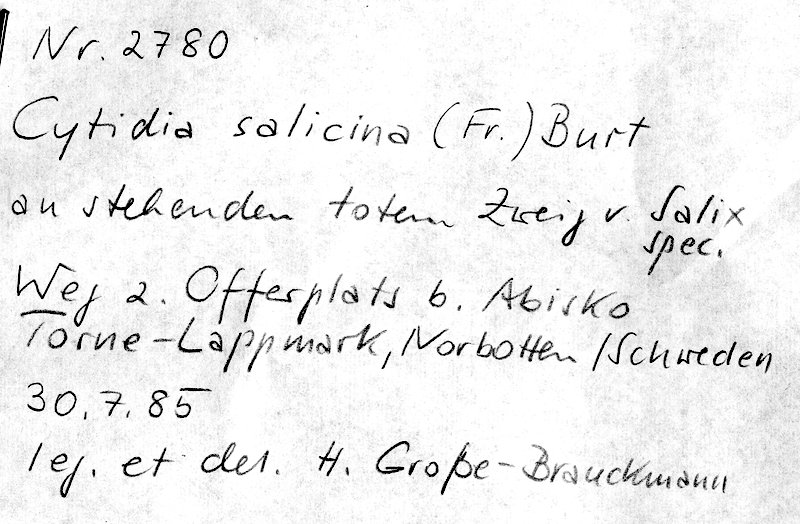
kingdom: Plantae
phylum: Tracheophyta
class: Magnoliopsida
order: Malpighiales
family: Salicaceae
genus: Salix
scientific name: Salix
